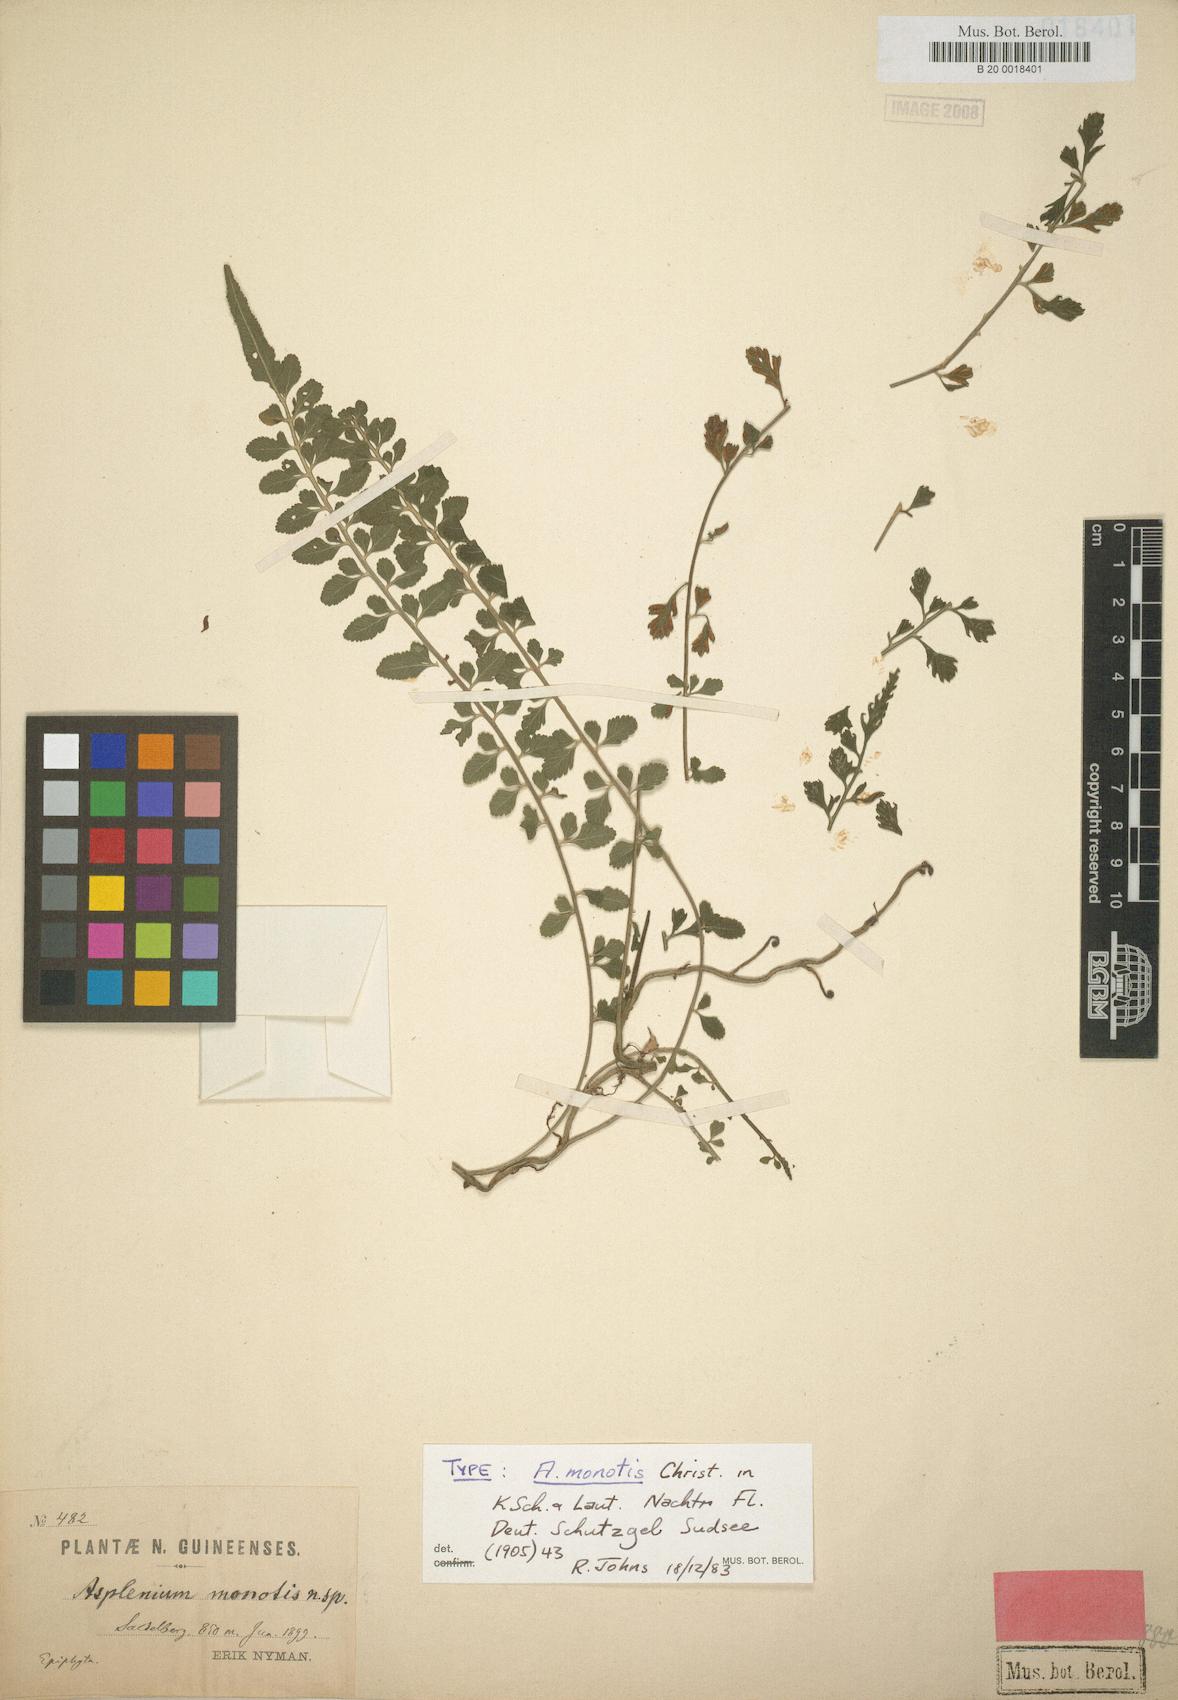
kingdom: Plantae
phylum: Tracheophyta
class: Polypodiopsida
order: Polypodiales
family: Aspleniaceae
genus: Asplenium
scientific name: Asplenium monotis
